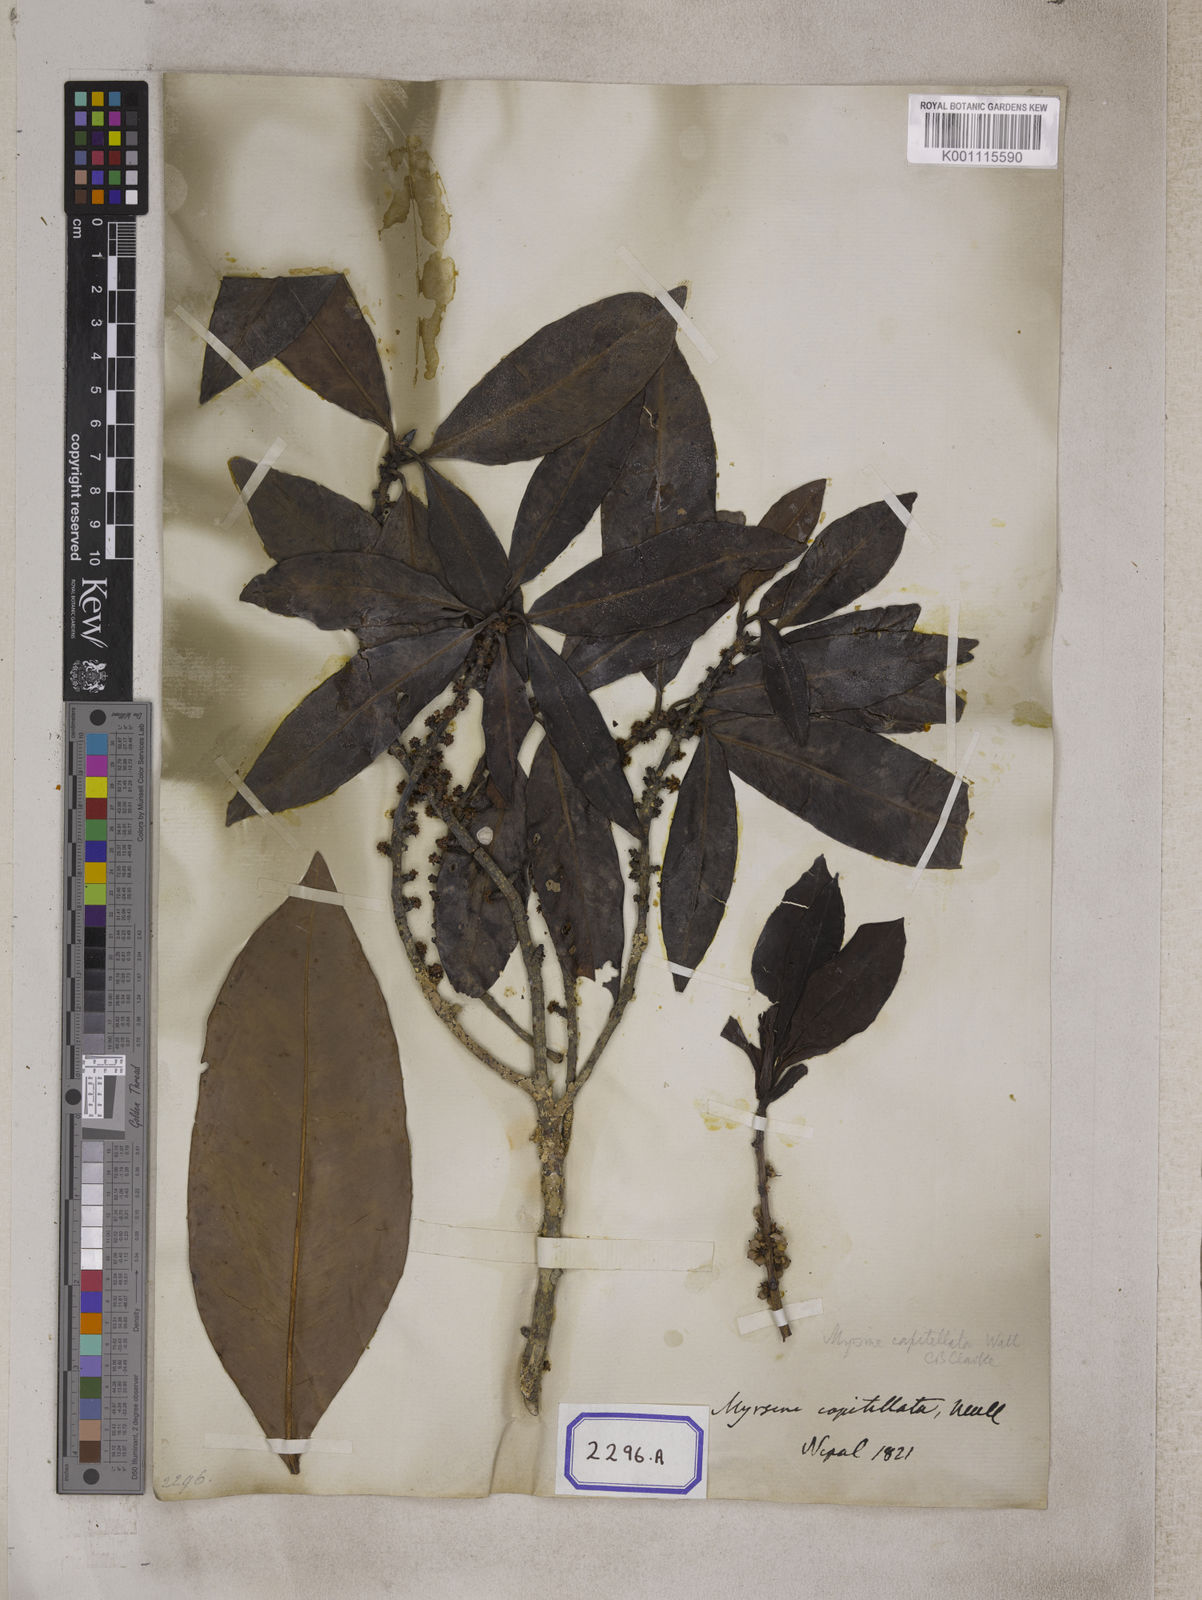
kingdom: Plantae
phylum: Tracheophyta
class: Magnoliopsida
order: Ericales
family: Primulaceae
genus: Myrsine
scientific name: Myrsine capitellata
